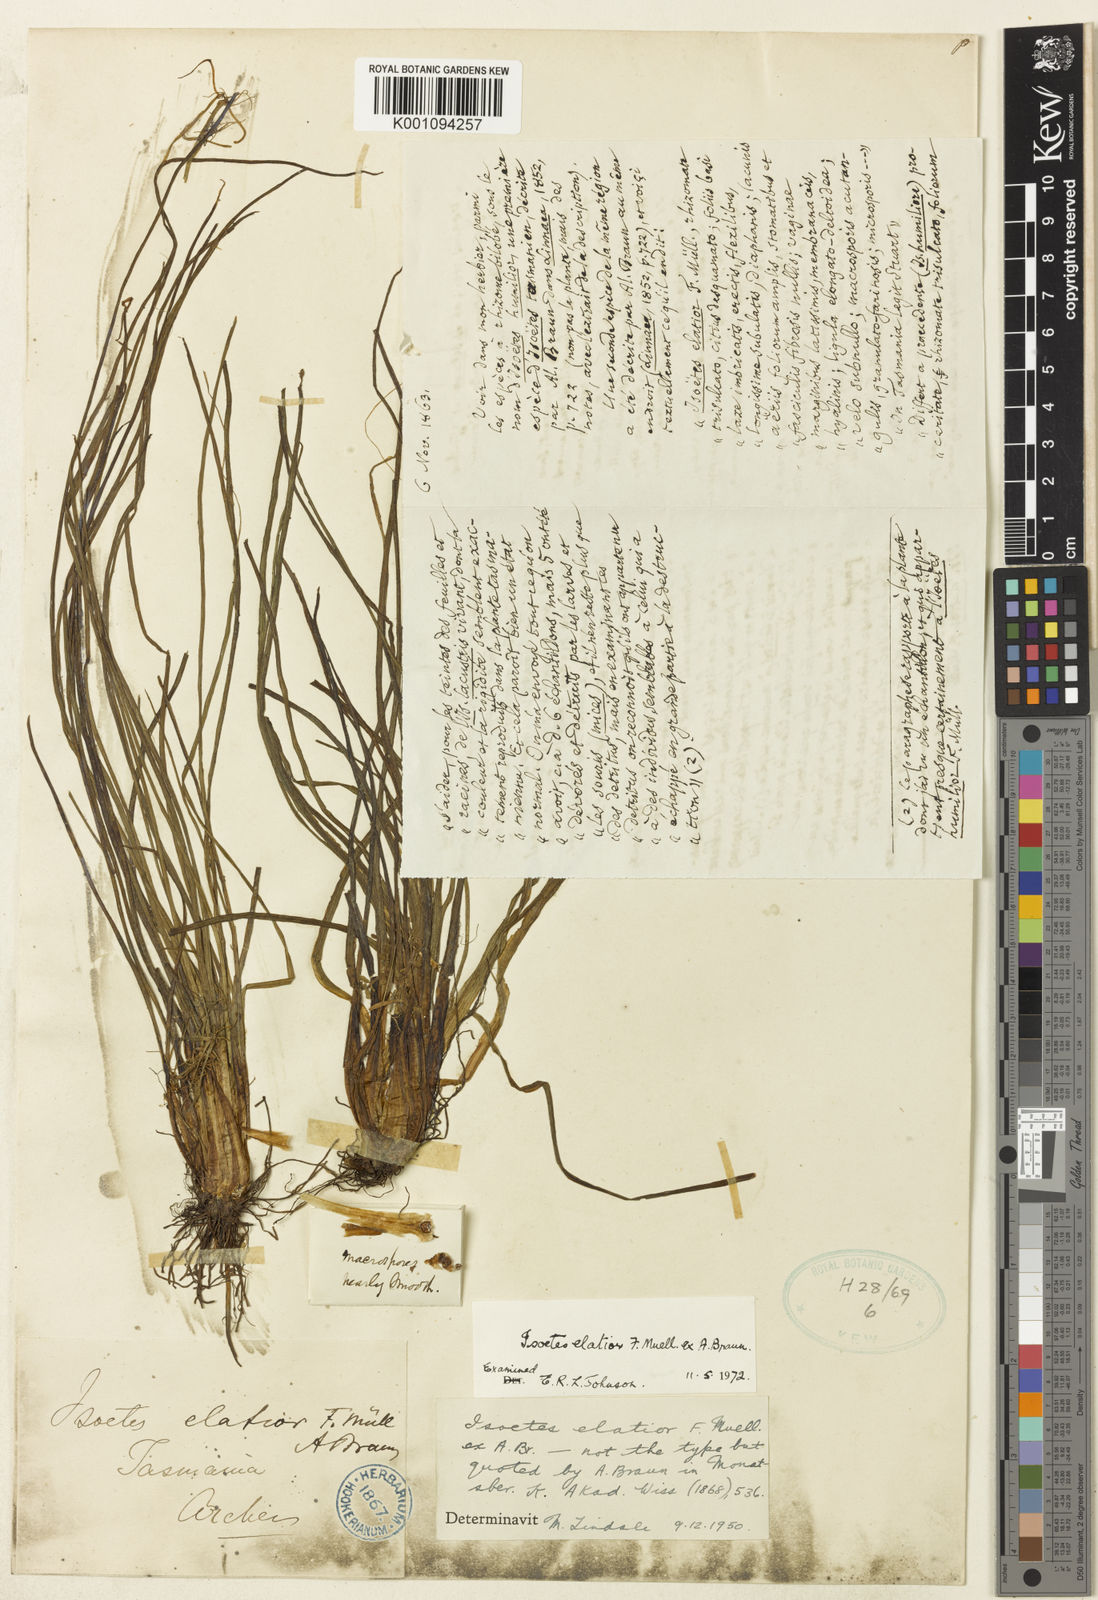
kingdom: Plantae
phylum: Tracheophyta
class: Lycopodiopsida
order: Isoetales
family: Isoetaceae
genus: Isoetes
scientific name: Isoetes elatior
